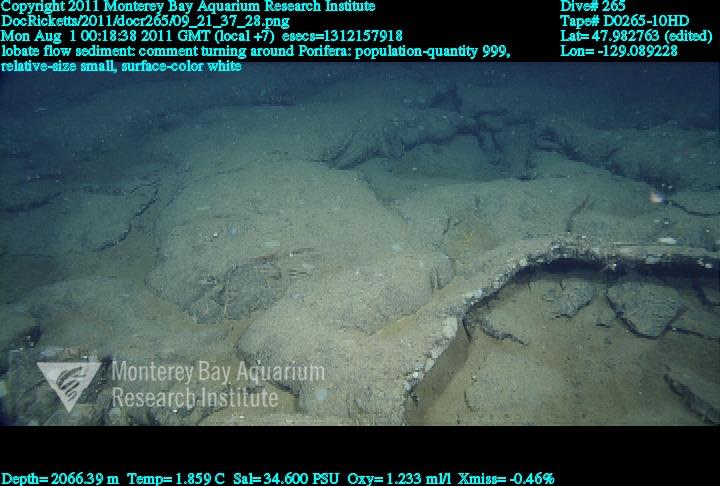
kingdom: Animalia
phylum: Porifera
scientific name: Porifera
